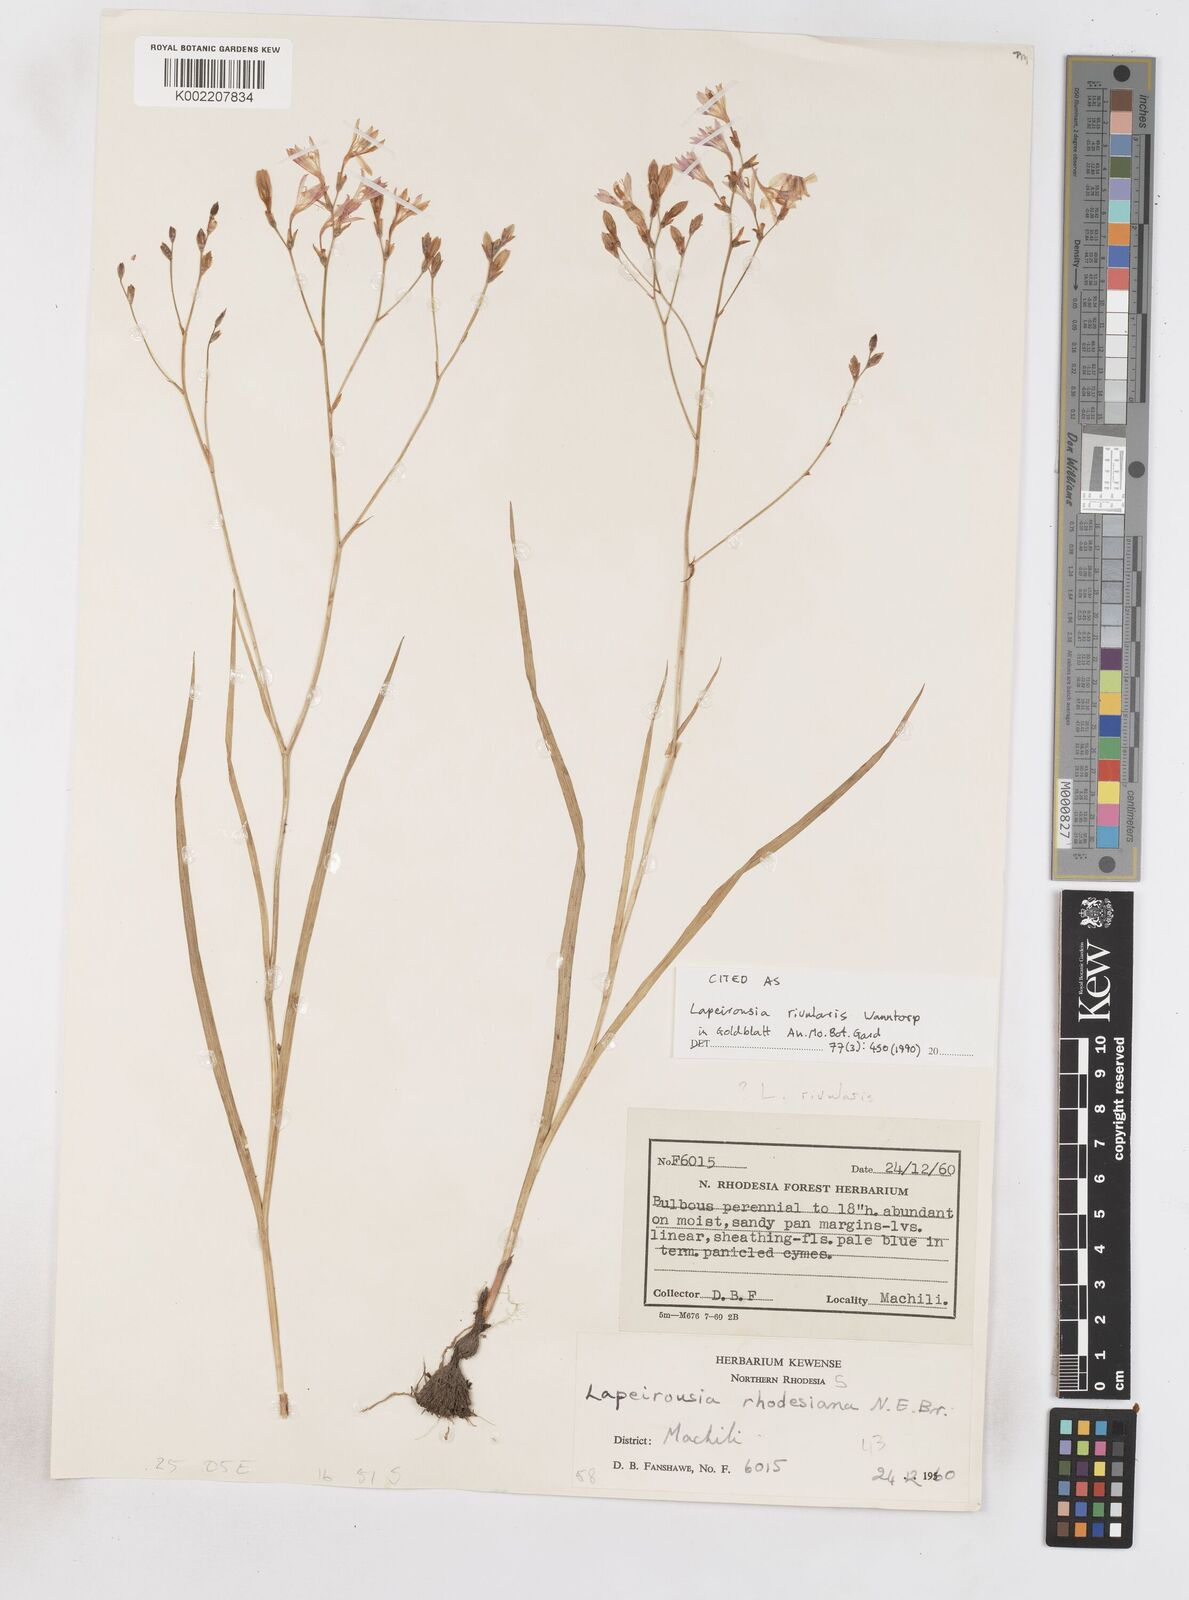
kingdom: Plantae
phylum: Tracheophyta
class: Liliopsida
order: Asparagales
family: Iridaceae
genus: Afrosolen
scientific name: Afrosolen rivularis
